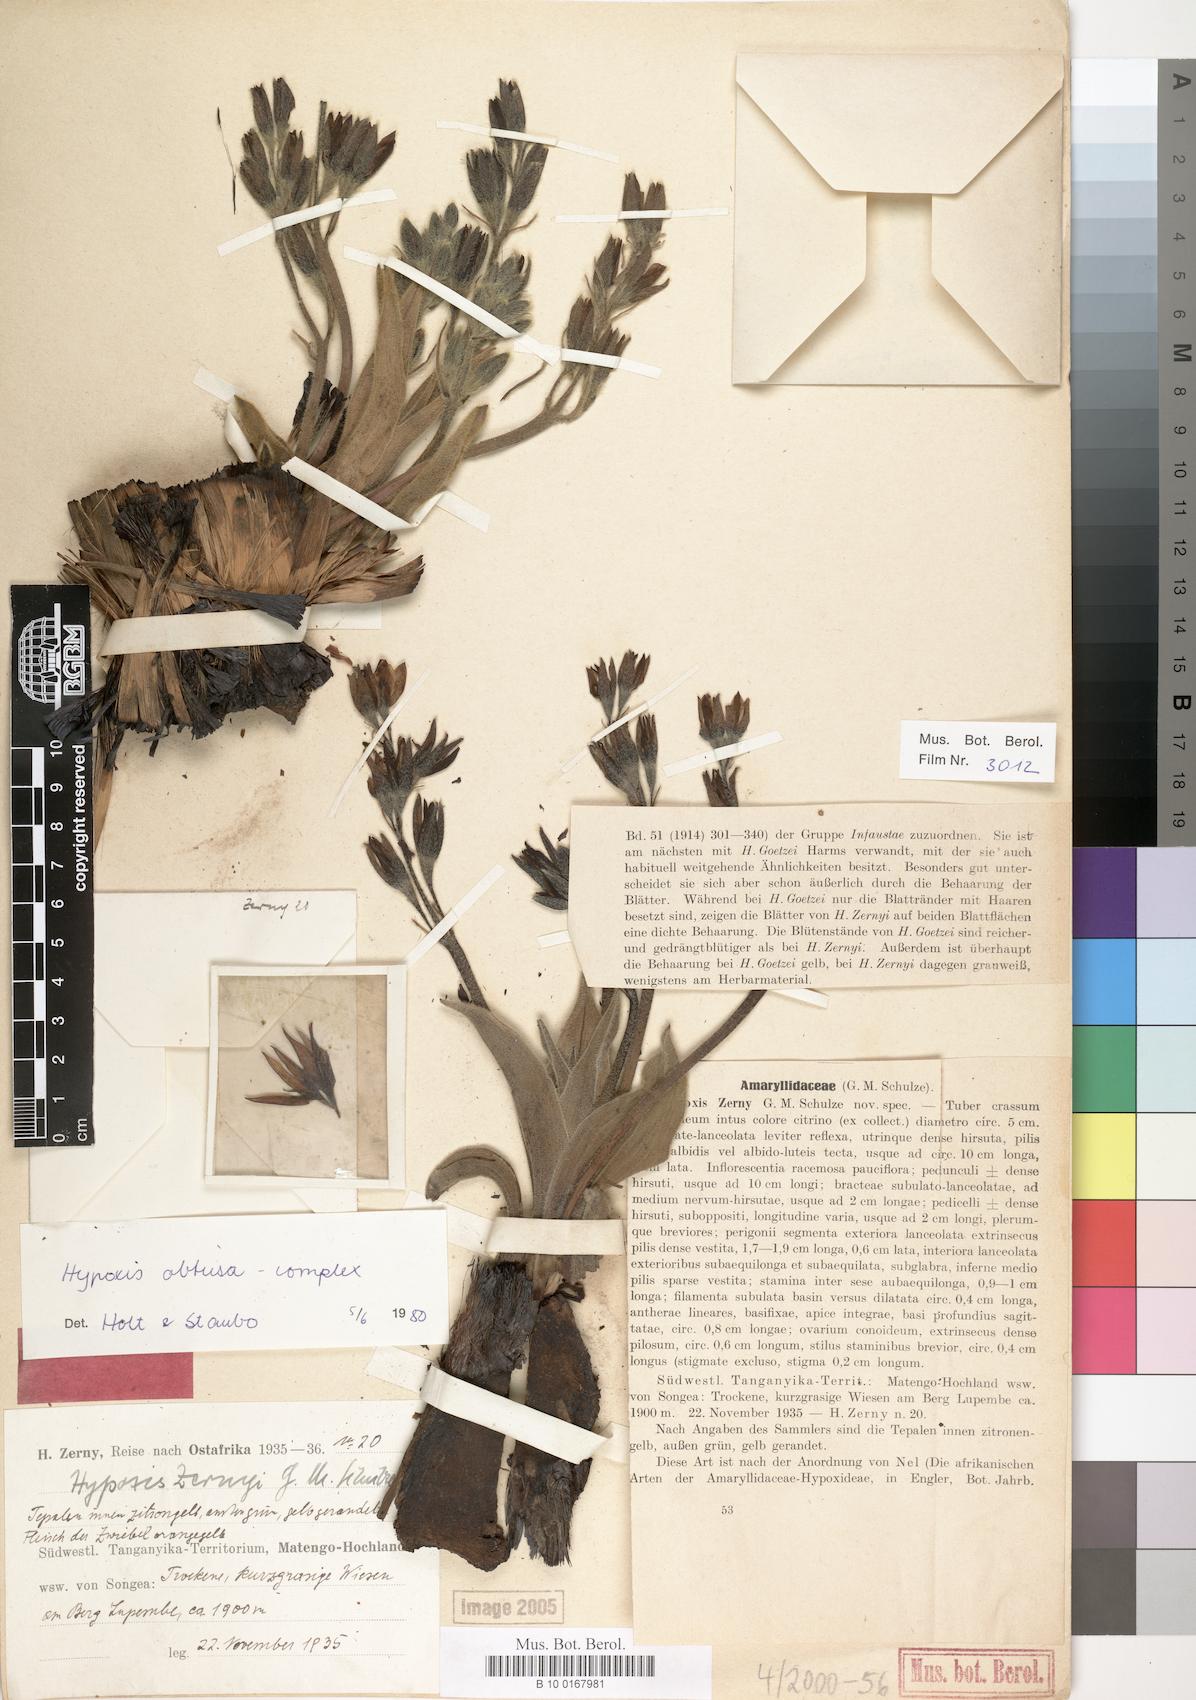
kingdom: Plantae
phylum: Tracheophyta
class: Liliopsida
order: Asparagales
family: Hypoxidaceae
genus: Hypoxis
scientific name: Hypoxis
